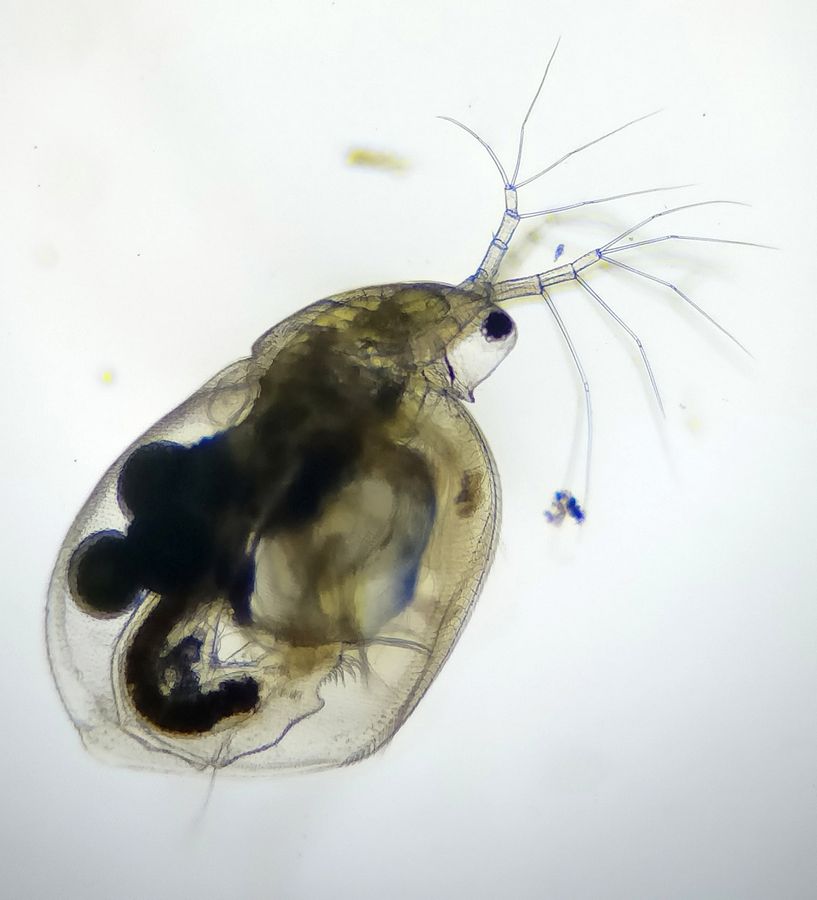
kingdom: Animalia
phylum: Arthropoda
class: Branchiopoda
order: Diplostraca
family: Daphniidae
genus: Simocephalus
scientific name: Simocephalus vetulus
